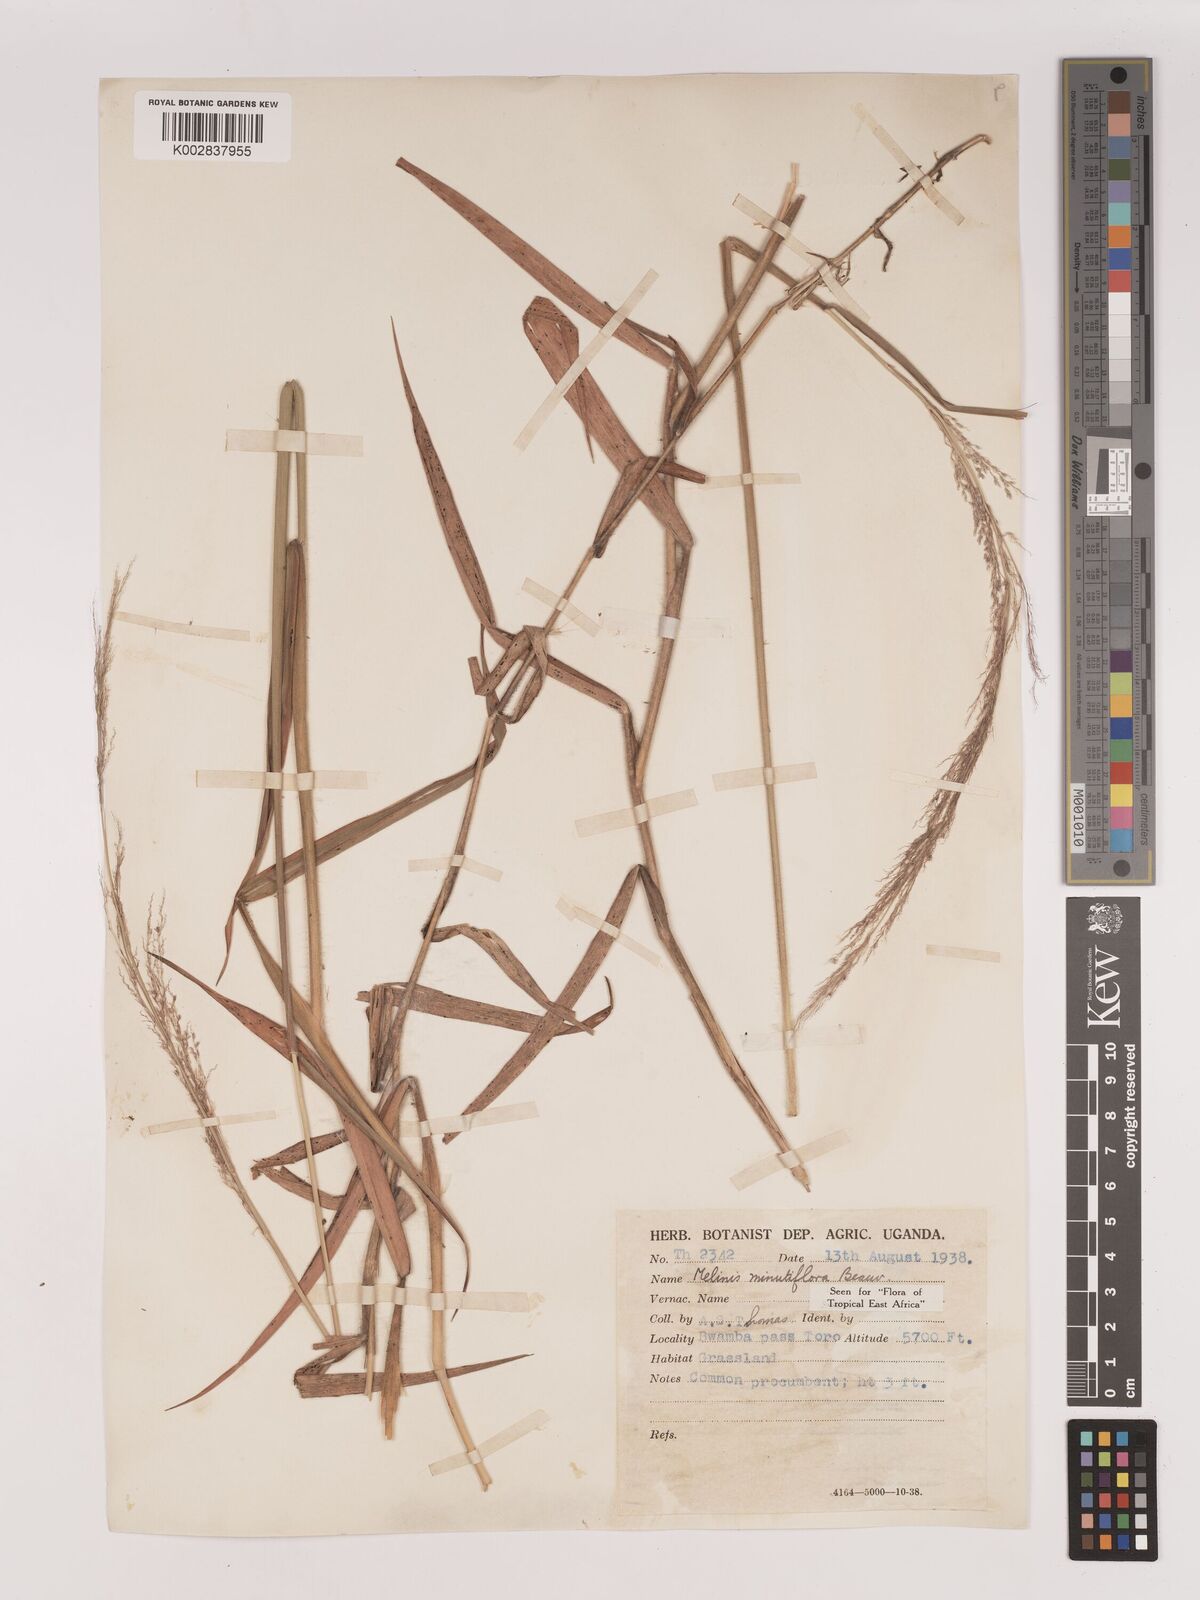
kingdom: Plantae
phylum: Tracheophyta
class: Liliopsida
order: Poales
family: Poaceae
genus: Melinis
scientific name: Melinis minutiflora
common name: Molassesgrass
